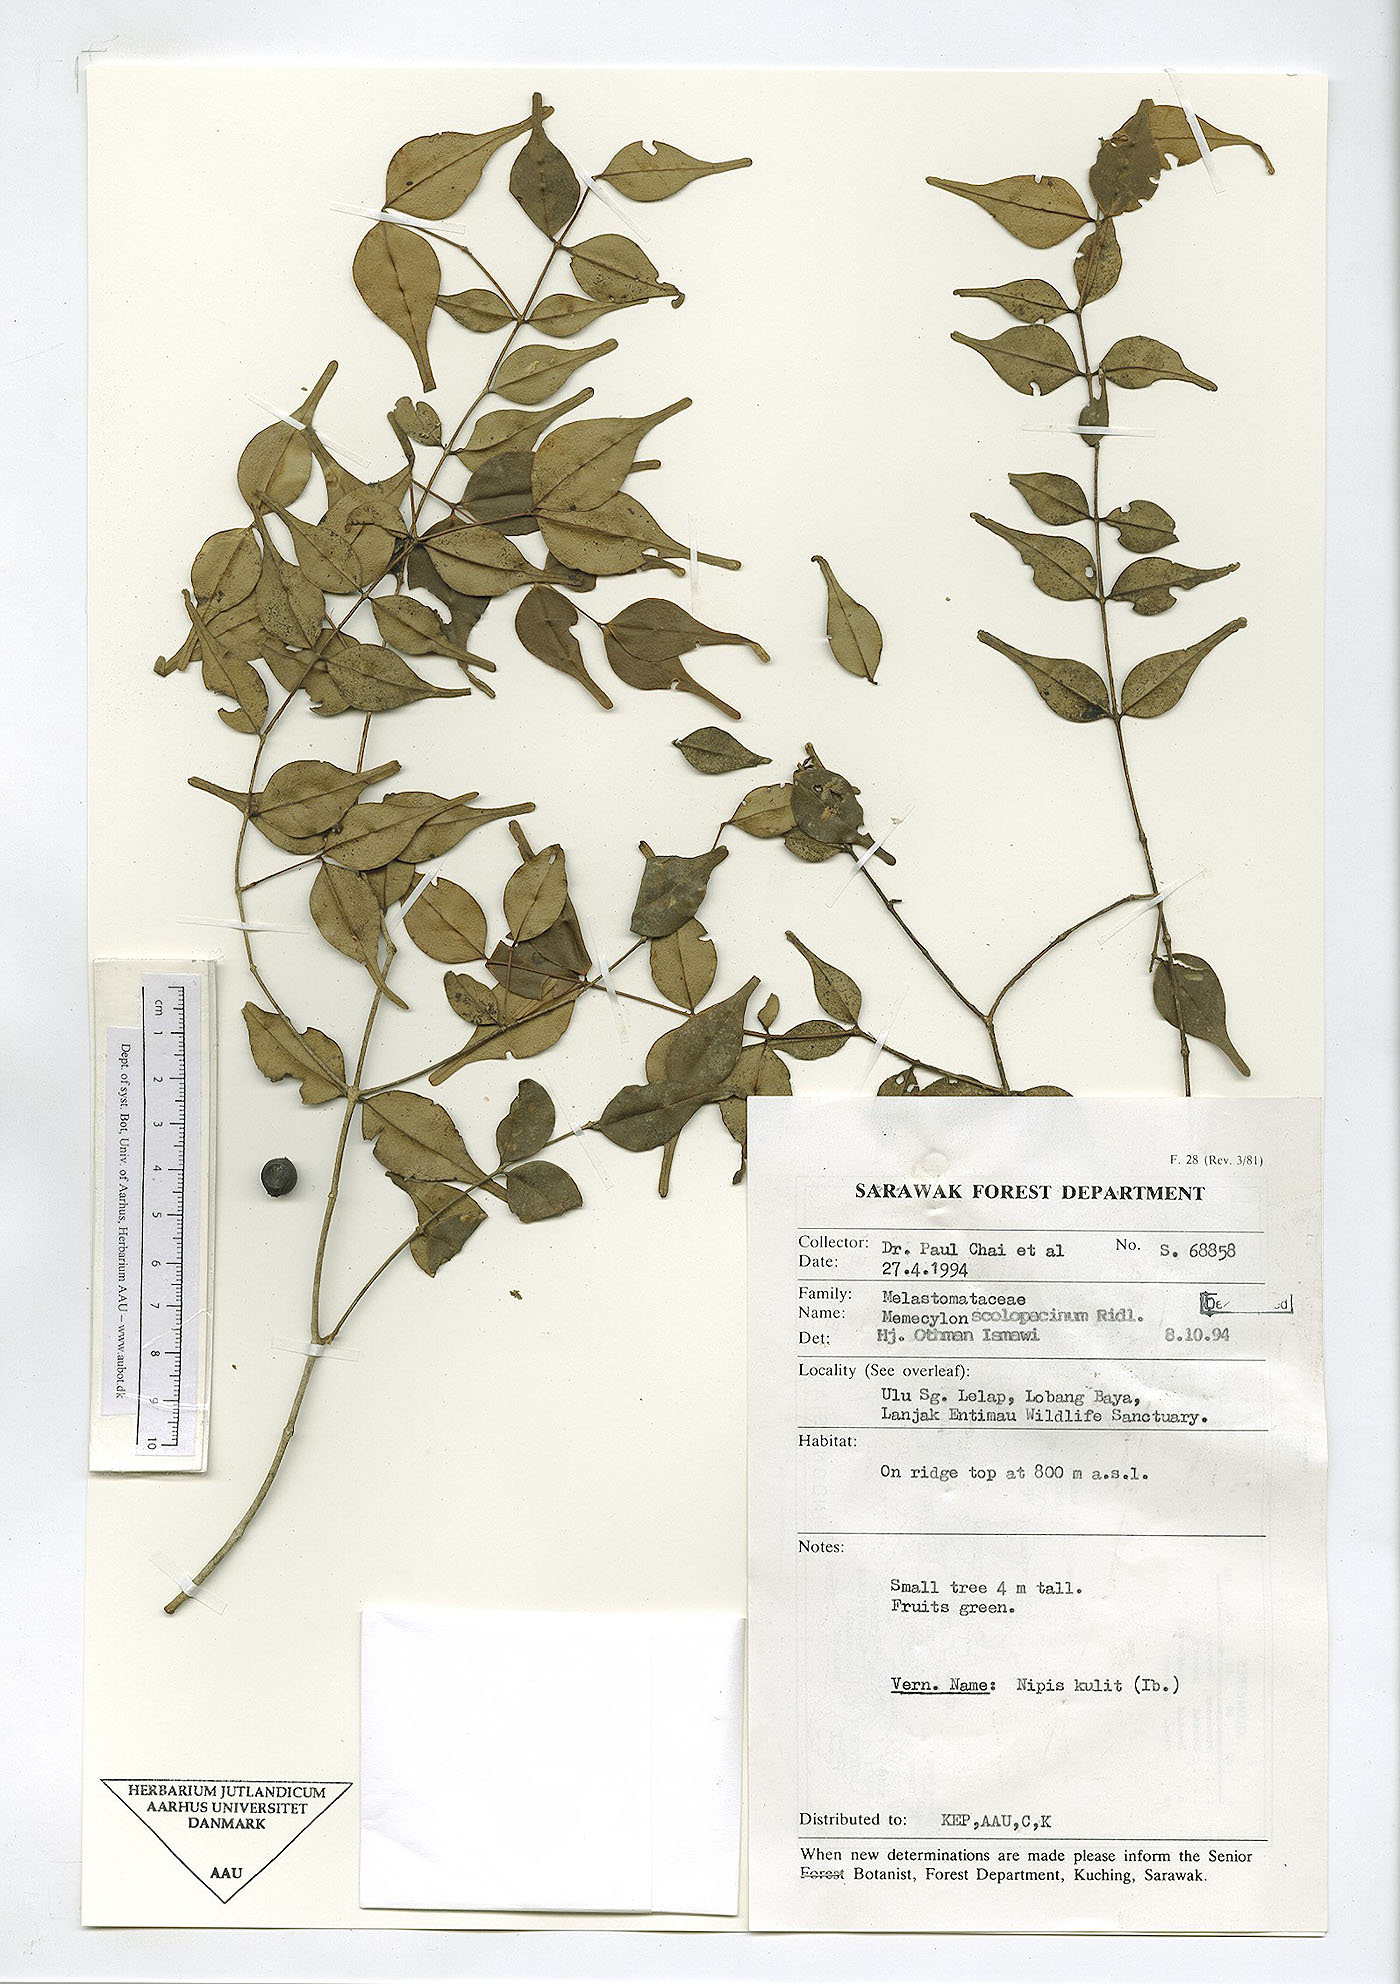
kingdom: Plantae
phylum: Tracheophyta
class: Magnoliopsida
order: Myrtales
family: Melastomataceae
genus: Memecylon
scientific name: Memecylon scolopacinum
